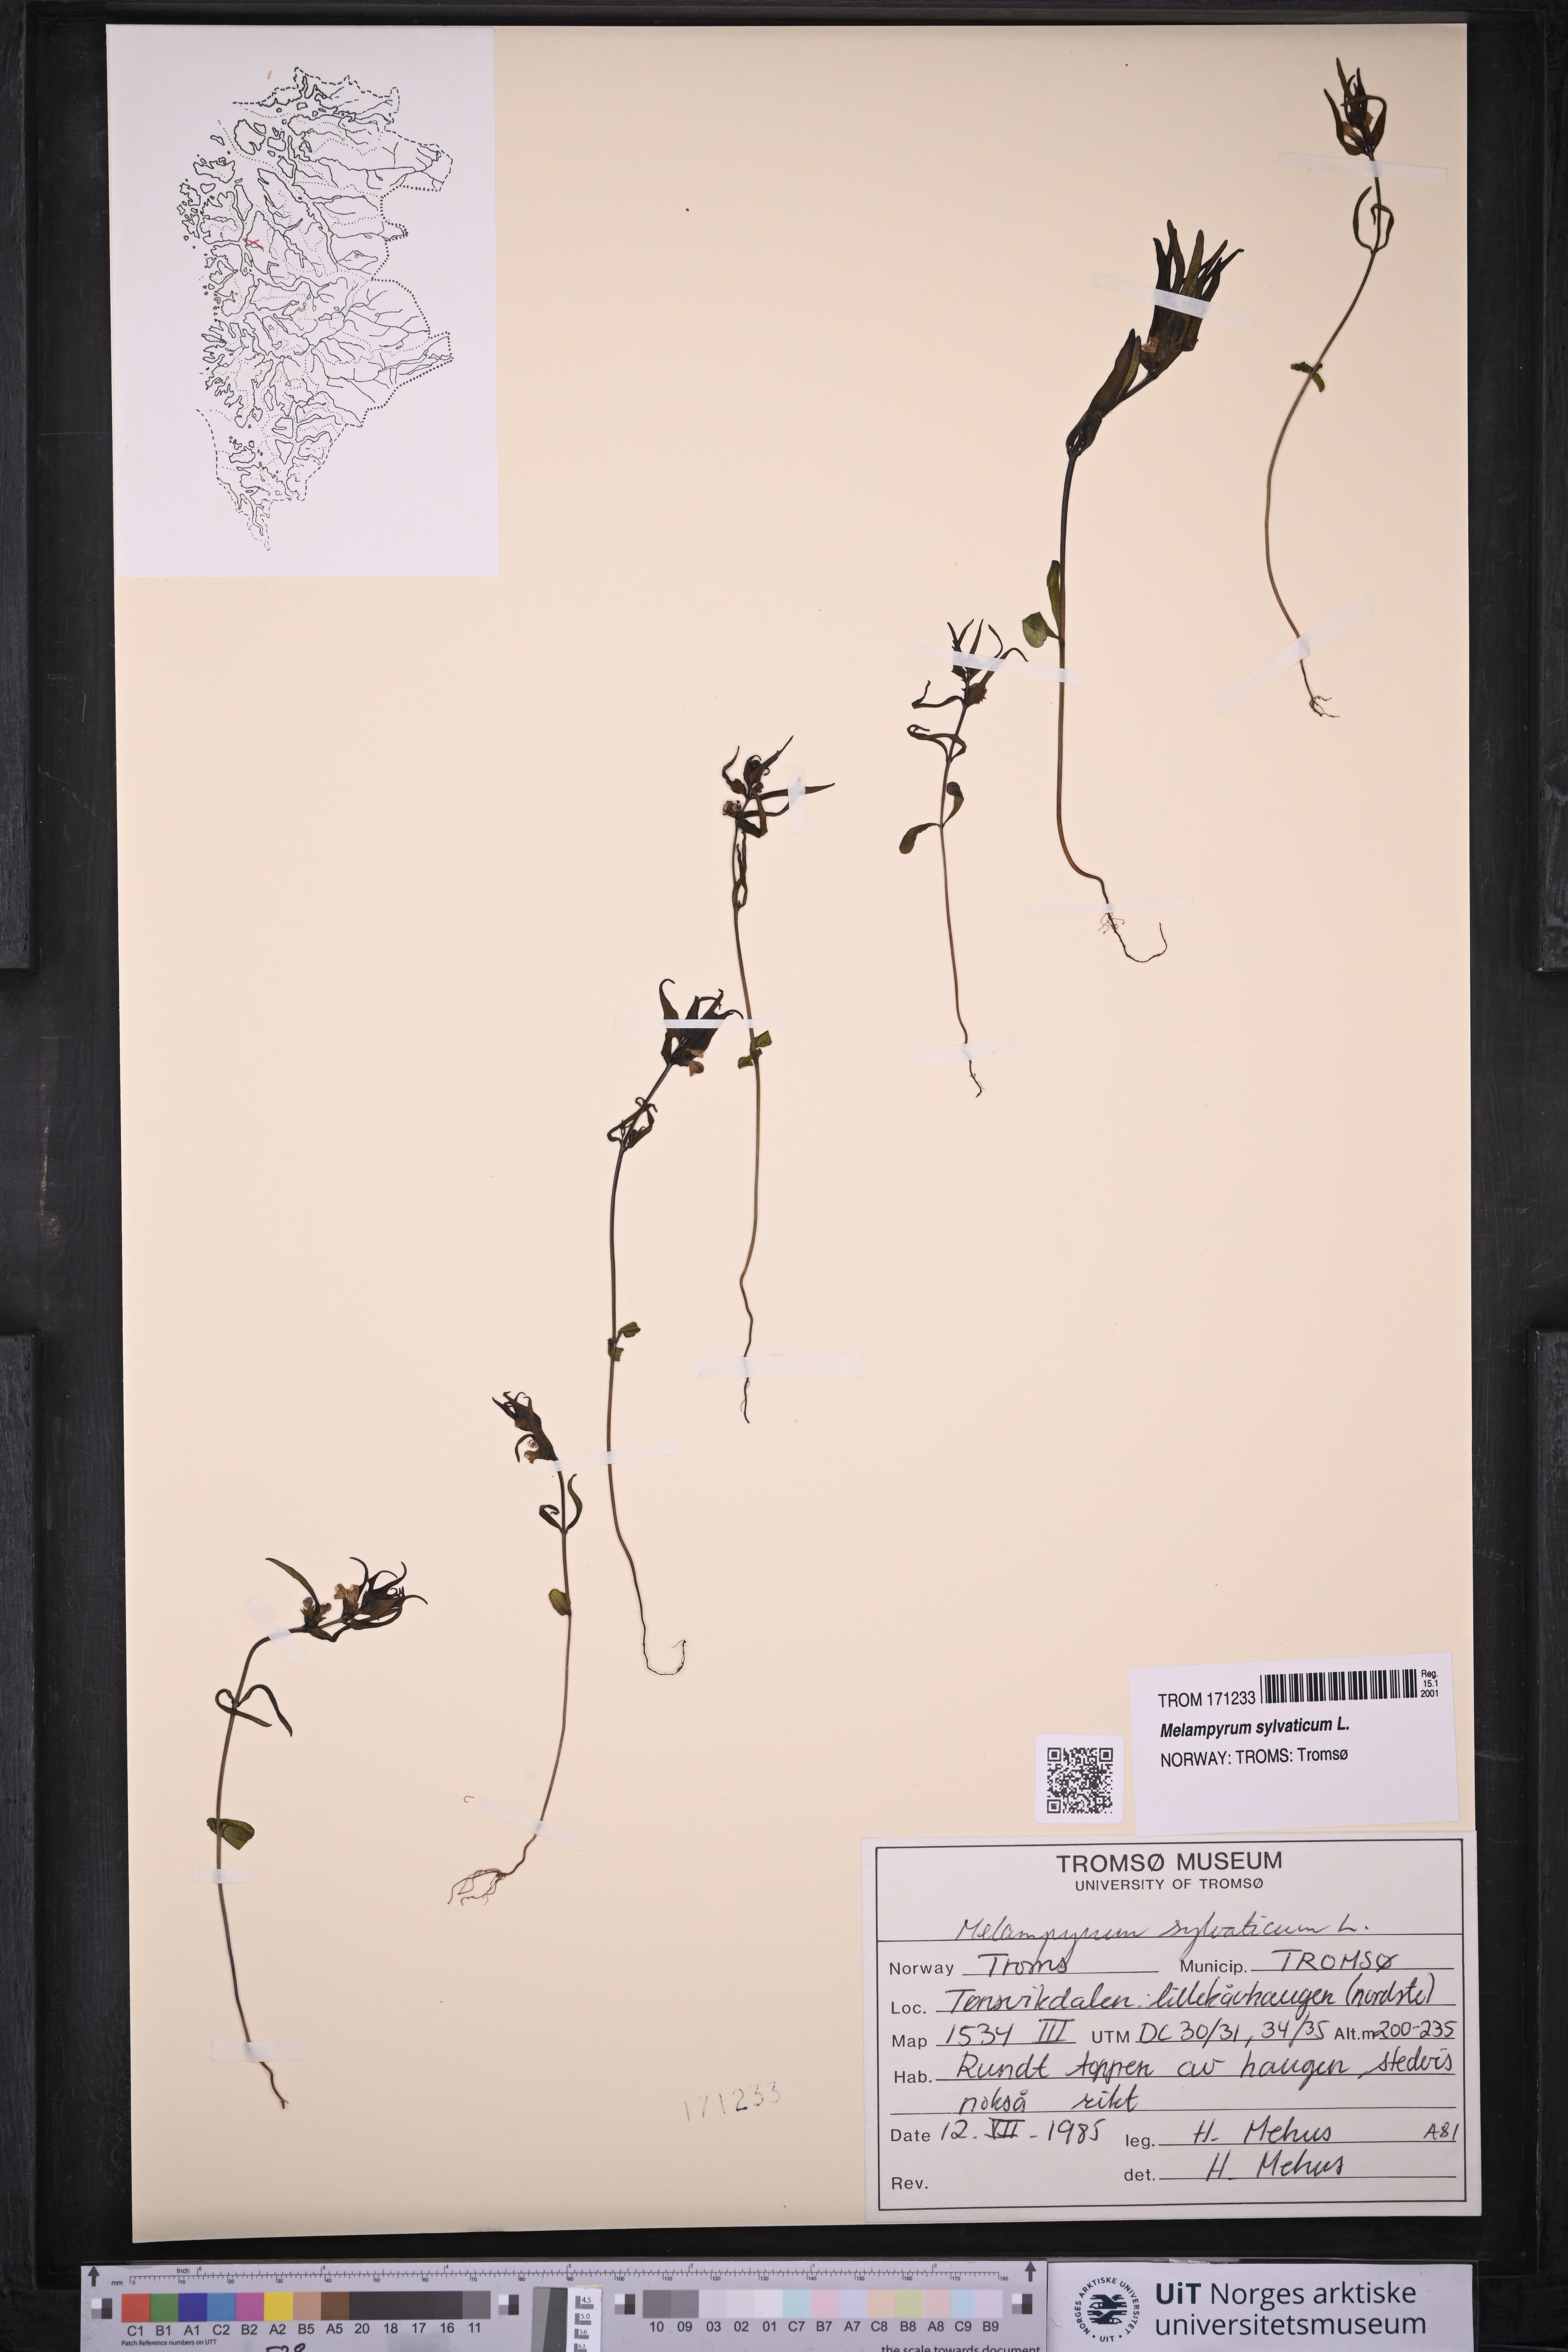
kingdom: Plantae
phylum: Tracheophyta
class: Magnoliopsida
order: Lamiales
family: Orobanchaceae
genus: Melampyrum
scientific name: Melampyrum sylvaticum
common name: Small cow-wheat
